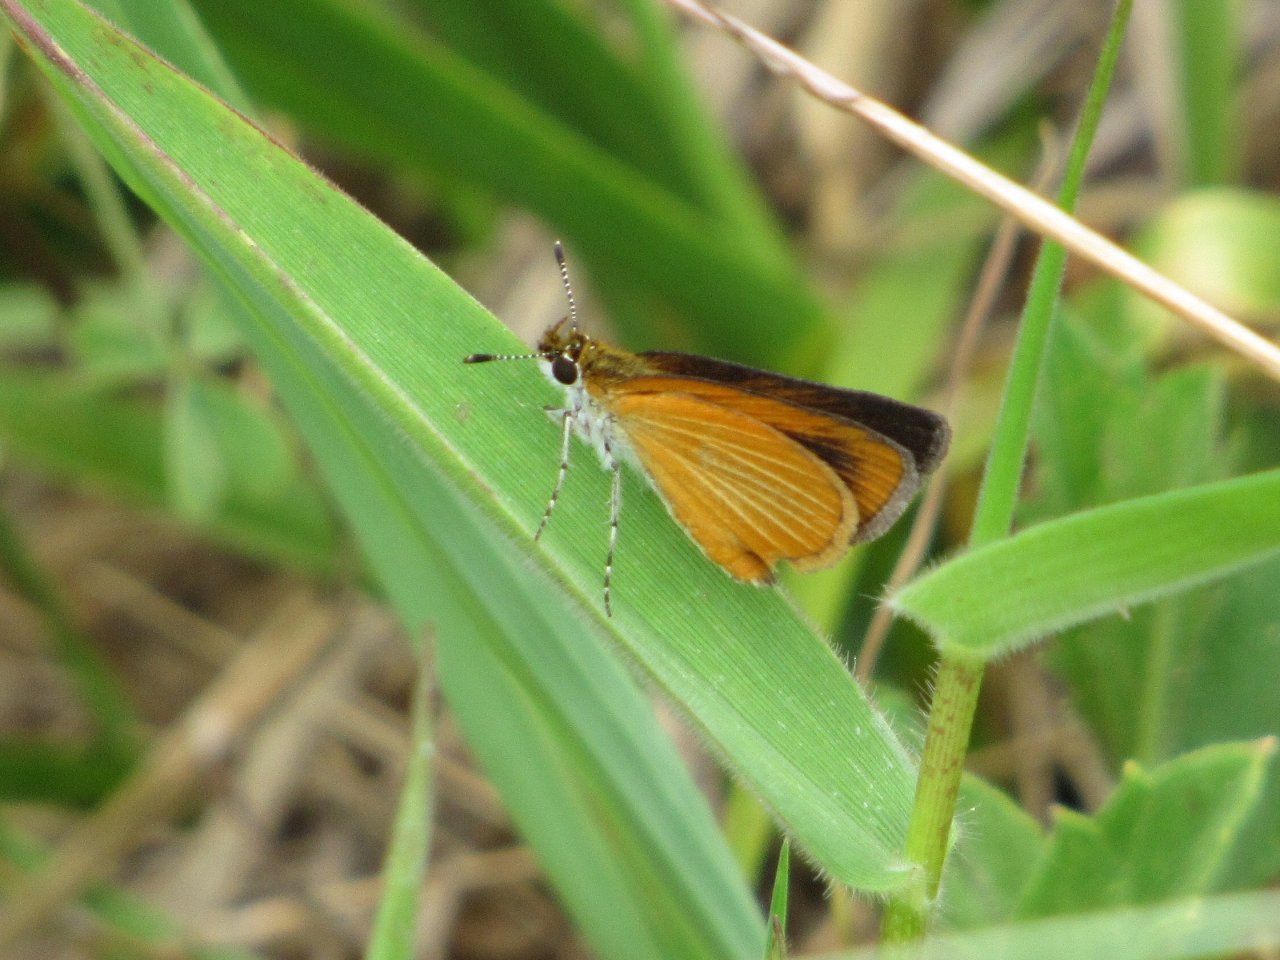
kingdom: Animalia
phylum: Arthropoda
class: Insecta
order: Lepidoptera
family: Hesperiidae
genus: Ancyloxypha
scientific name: Ancyloxypha numitor
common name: Least Skipper
